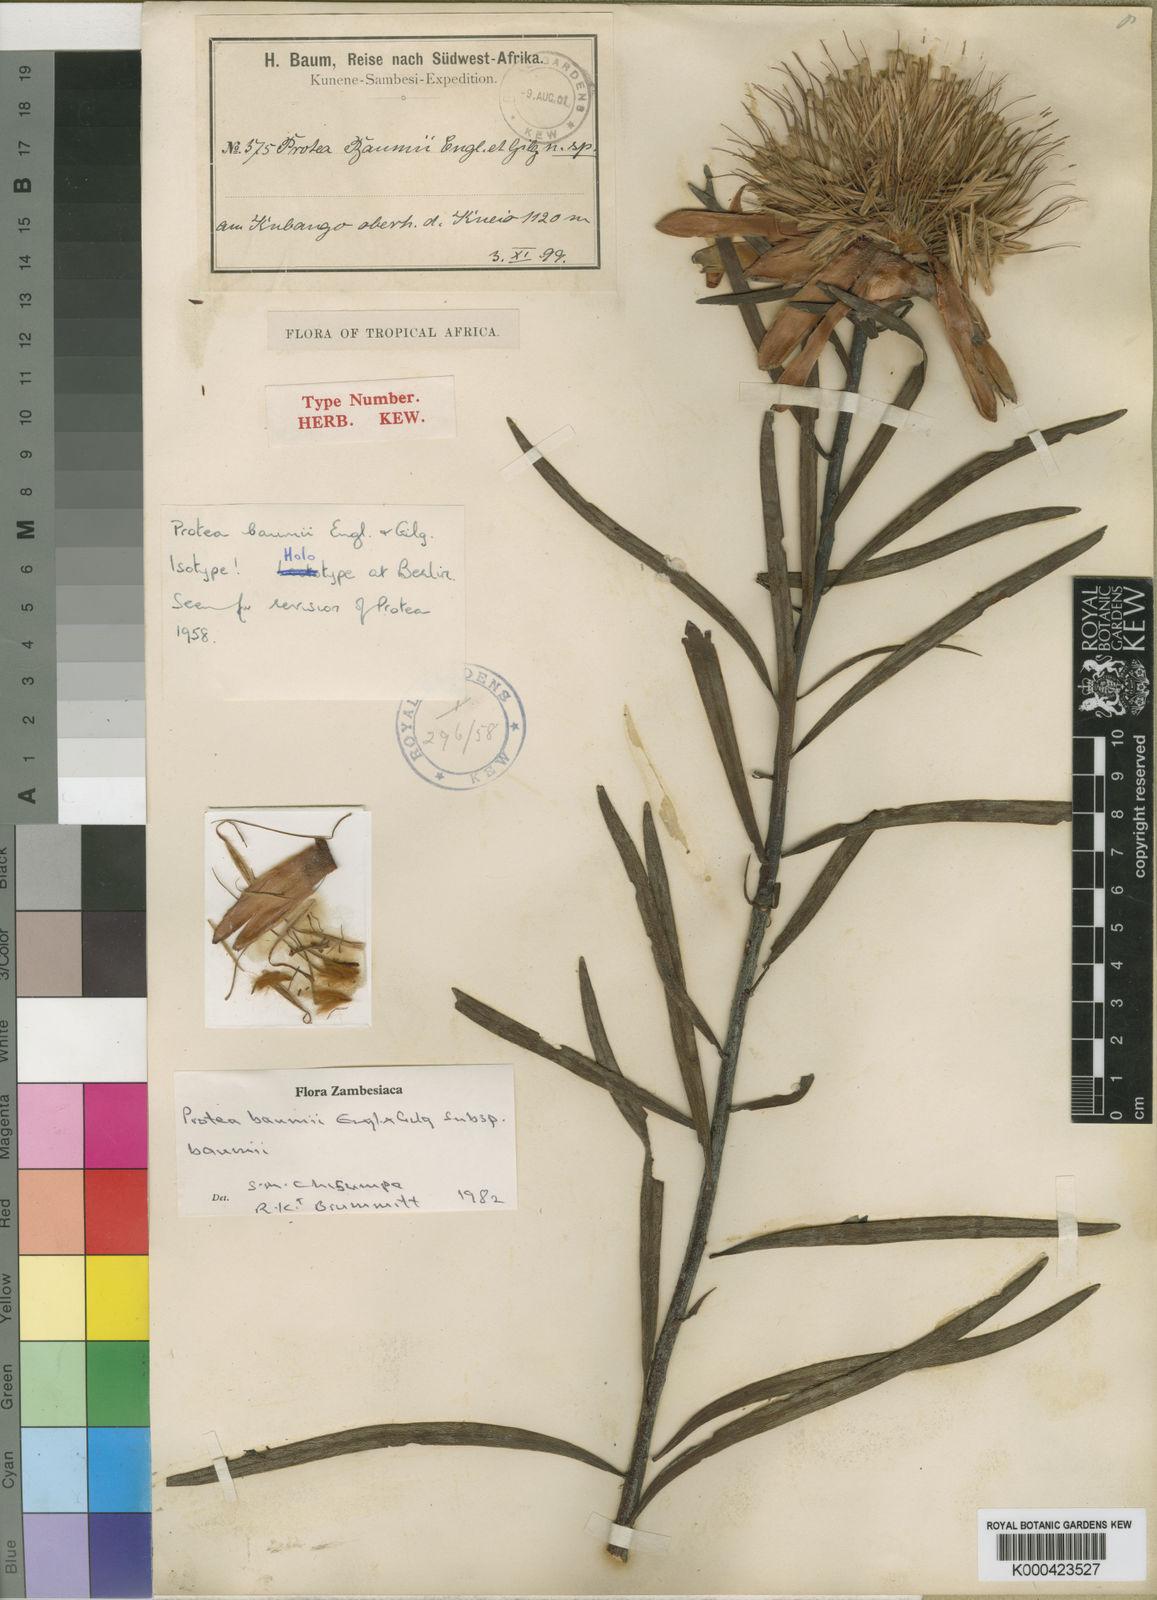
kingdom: Plantae
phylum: Tracheophyta
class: Magnoliopsida
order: Proteales
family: Proteaceae
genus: Protea
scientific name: Protea baumii
